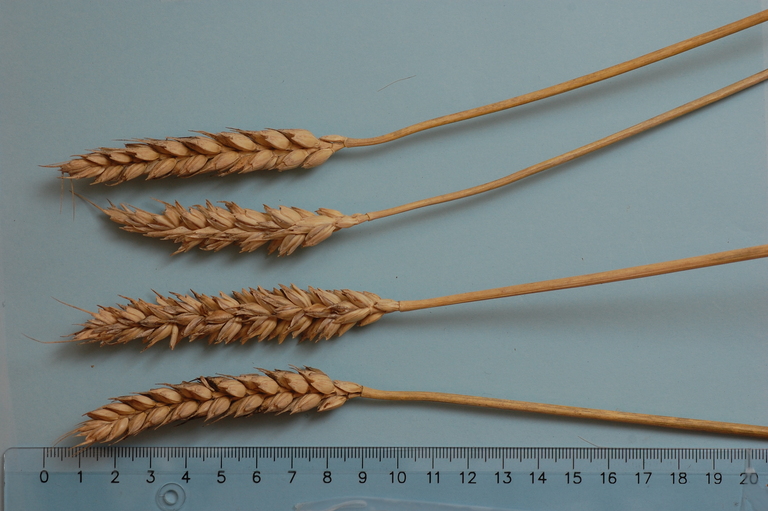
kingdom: Plantae
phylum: Tracheophyta
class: Liliopsida
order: Poales
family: Poaceae
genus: Triticum
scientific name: Triticum aestivum
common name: Common wheat
